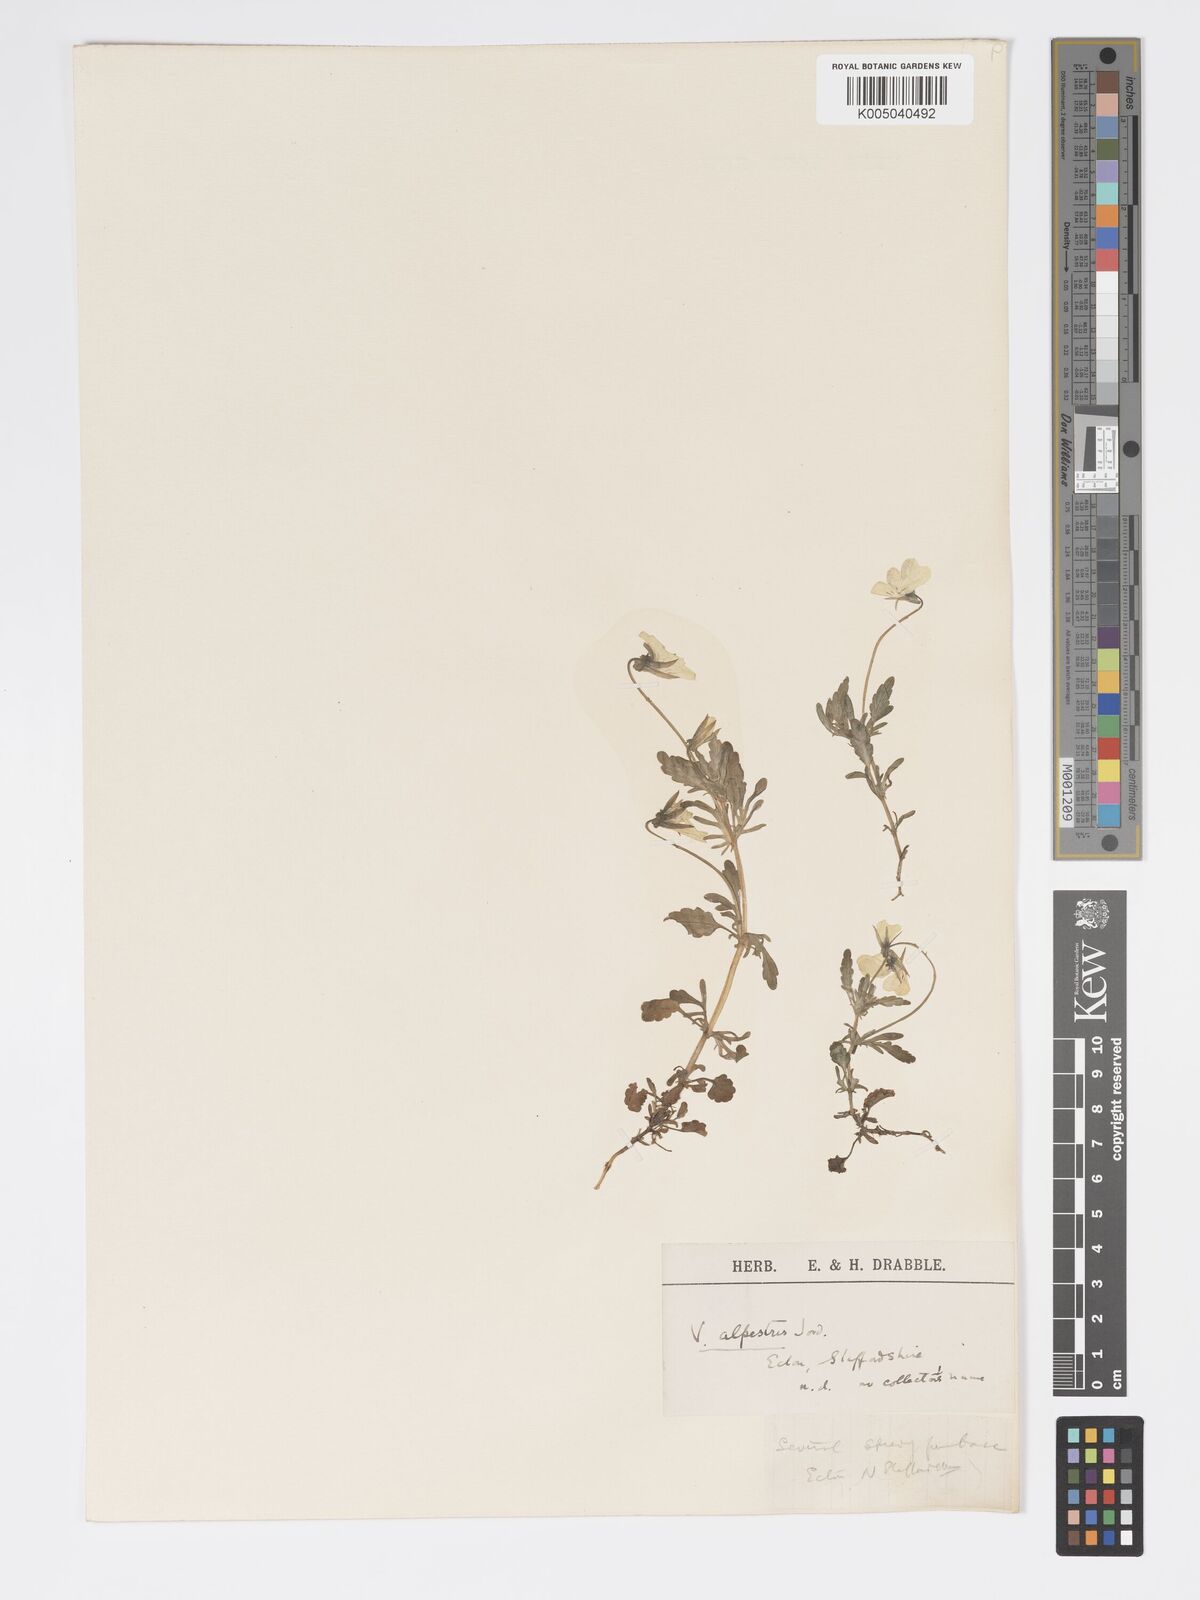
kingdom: Plantae
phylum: Tracheophyta
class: Magnoliopsida
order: Malpighiales
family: Violaceae
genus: Viola
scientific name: Viola arvensis
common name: Field pansy
